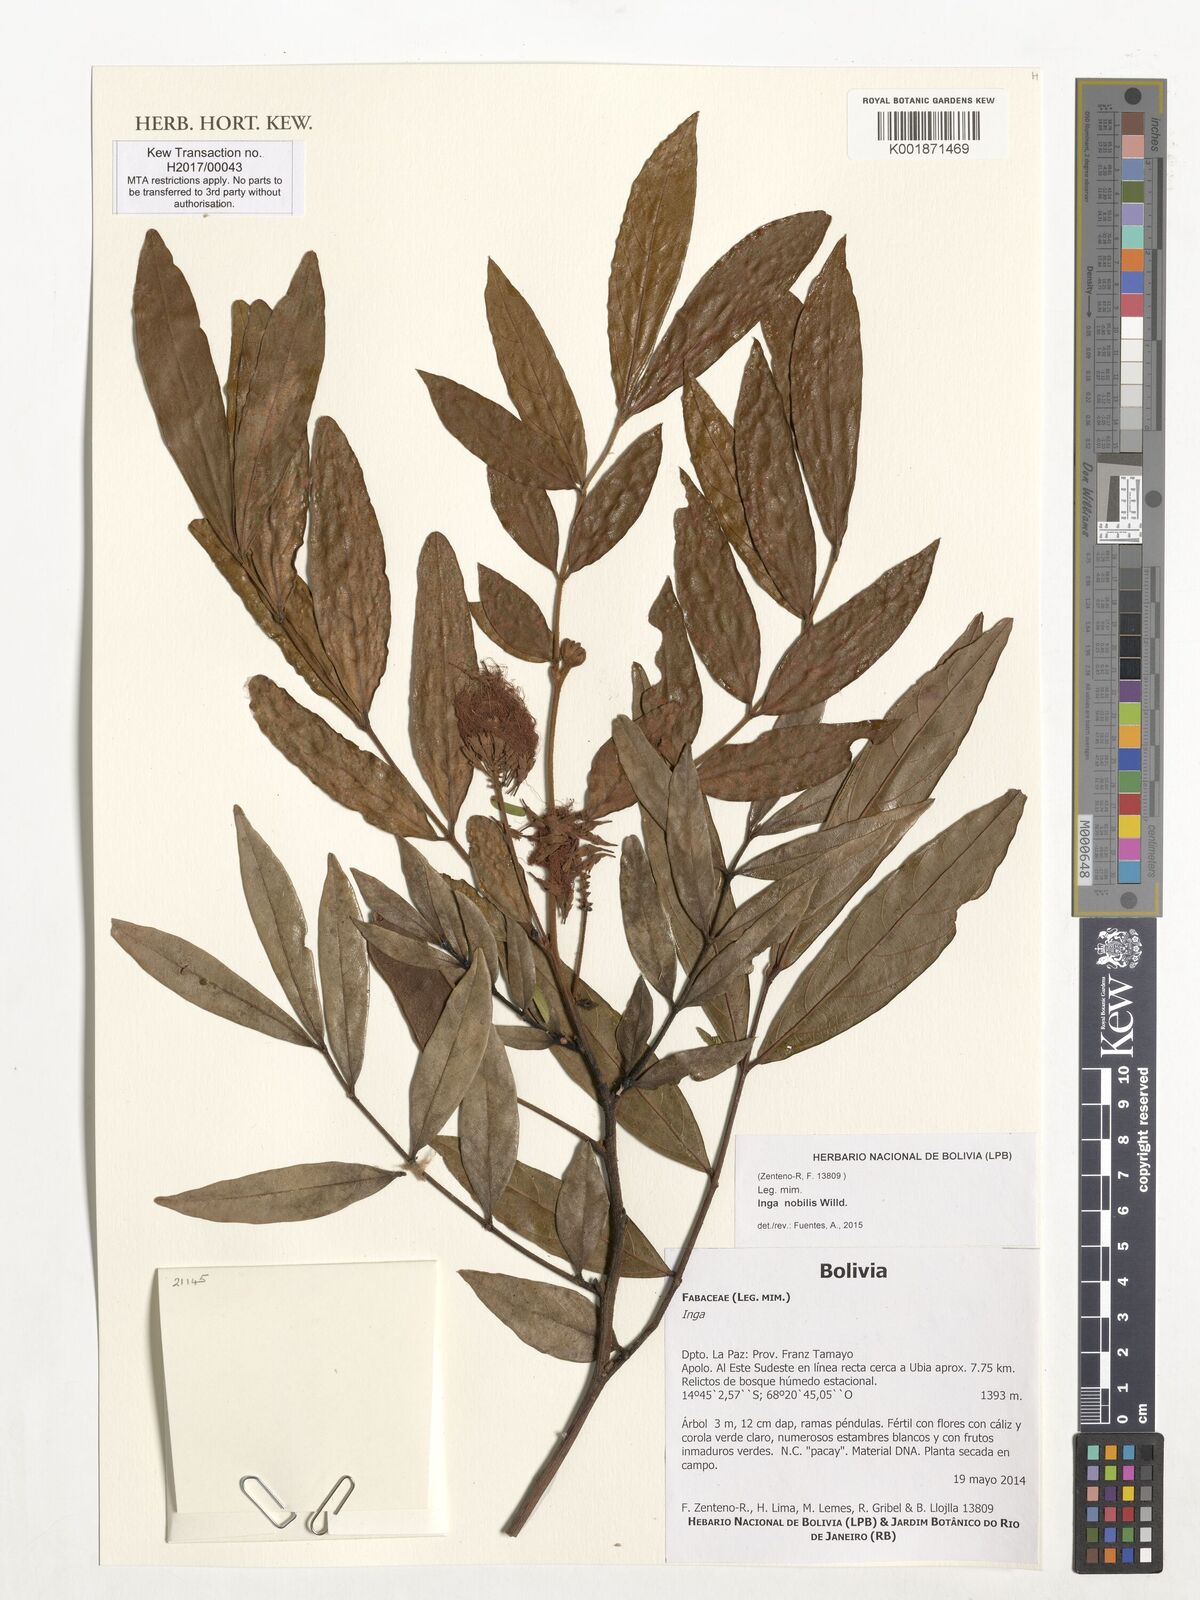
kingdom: Plantae
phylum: Tracheophyta
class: Magnoliopsida
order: Fabales
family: Fabaceae
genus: Inga
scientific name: Inga nobilis
